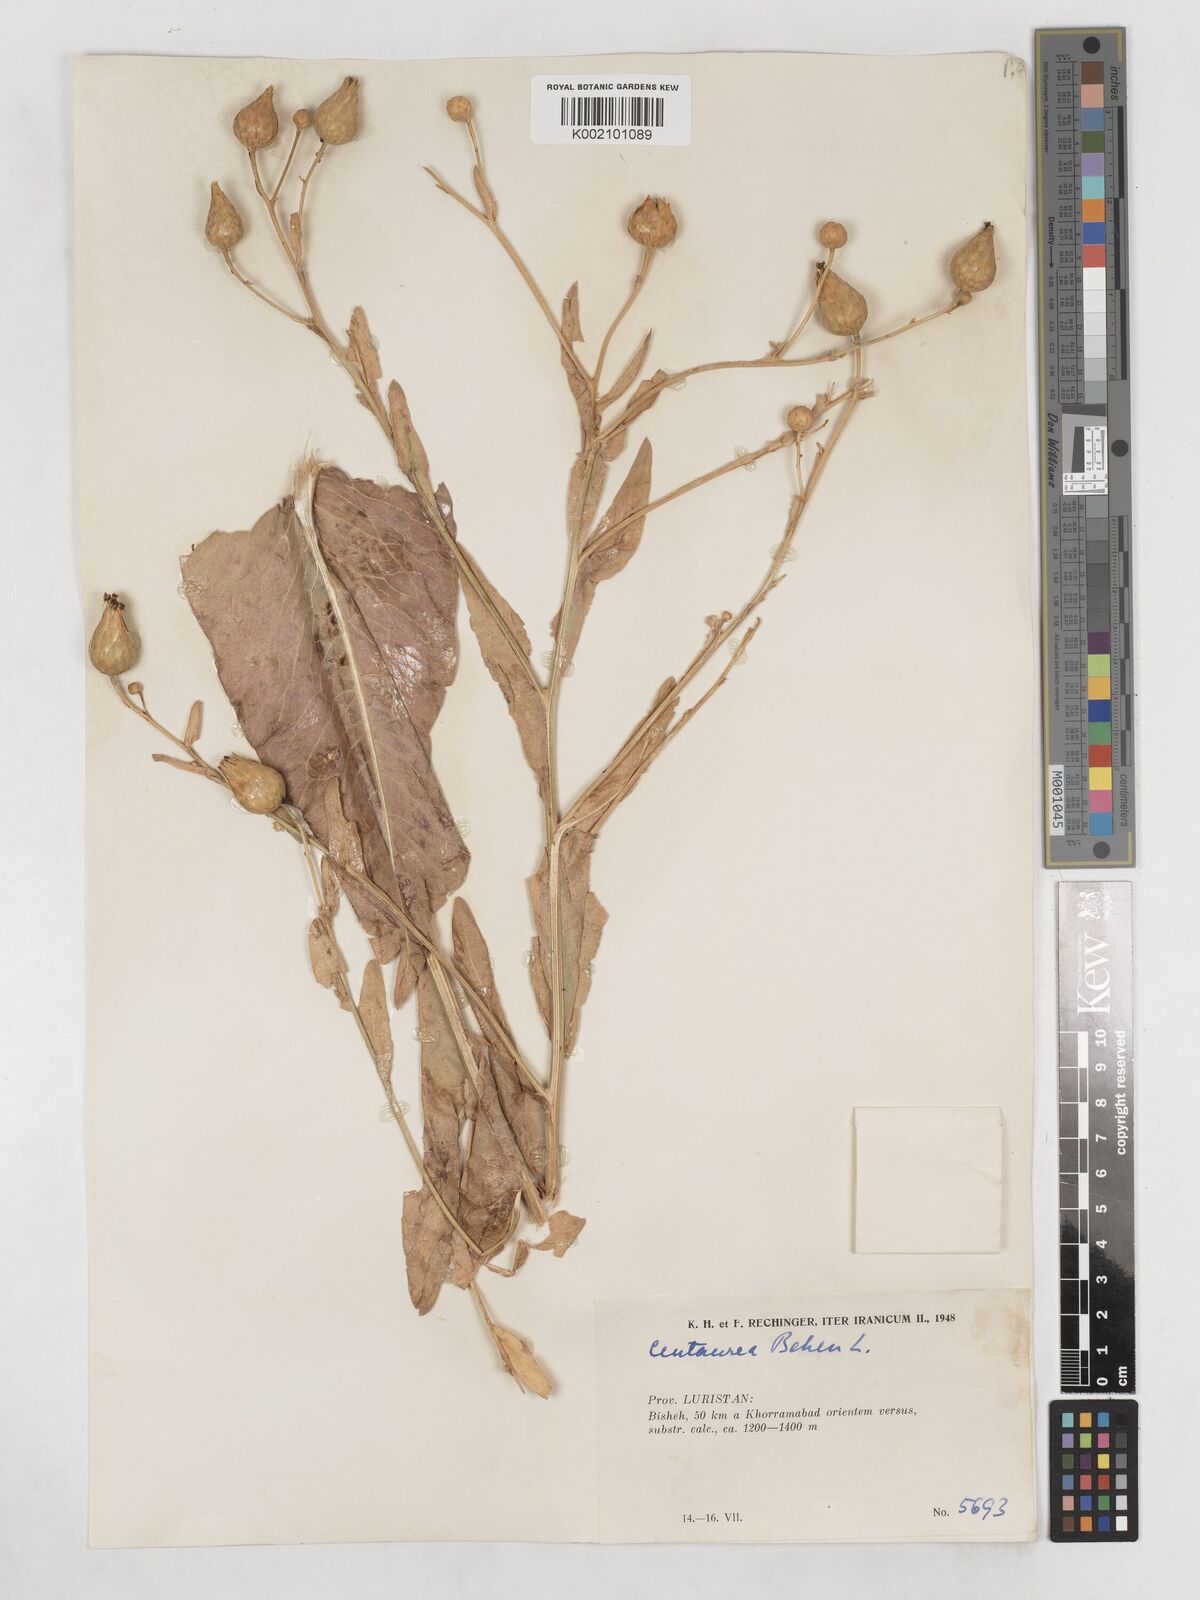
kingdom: Plantae
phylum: Tracheophyta
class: Magnoliopsida
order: Asterales
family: Asteraceae
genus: Centaurea
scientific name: Centaurea behen
